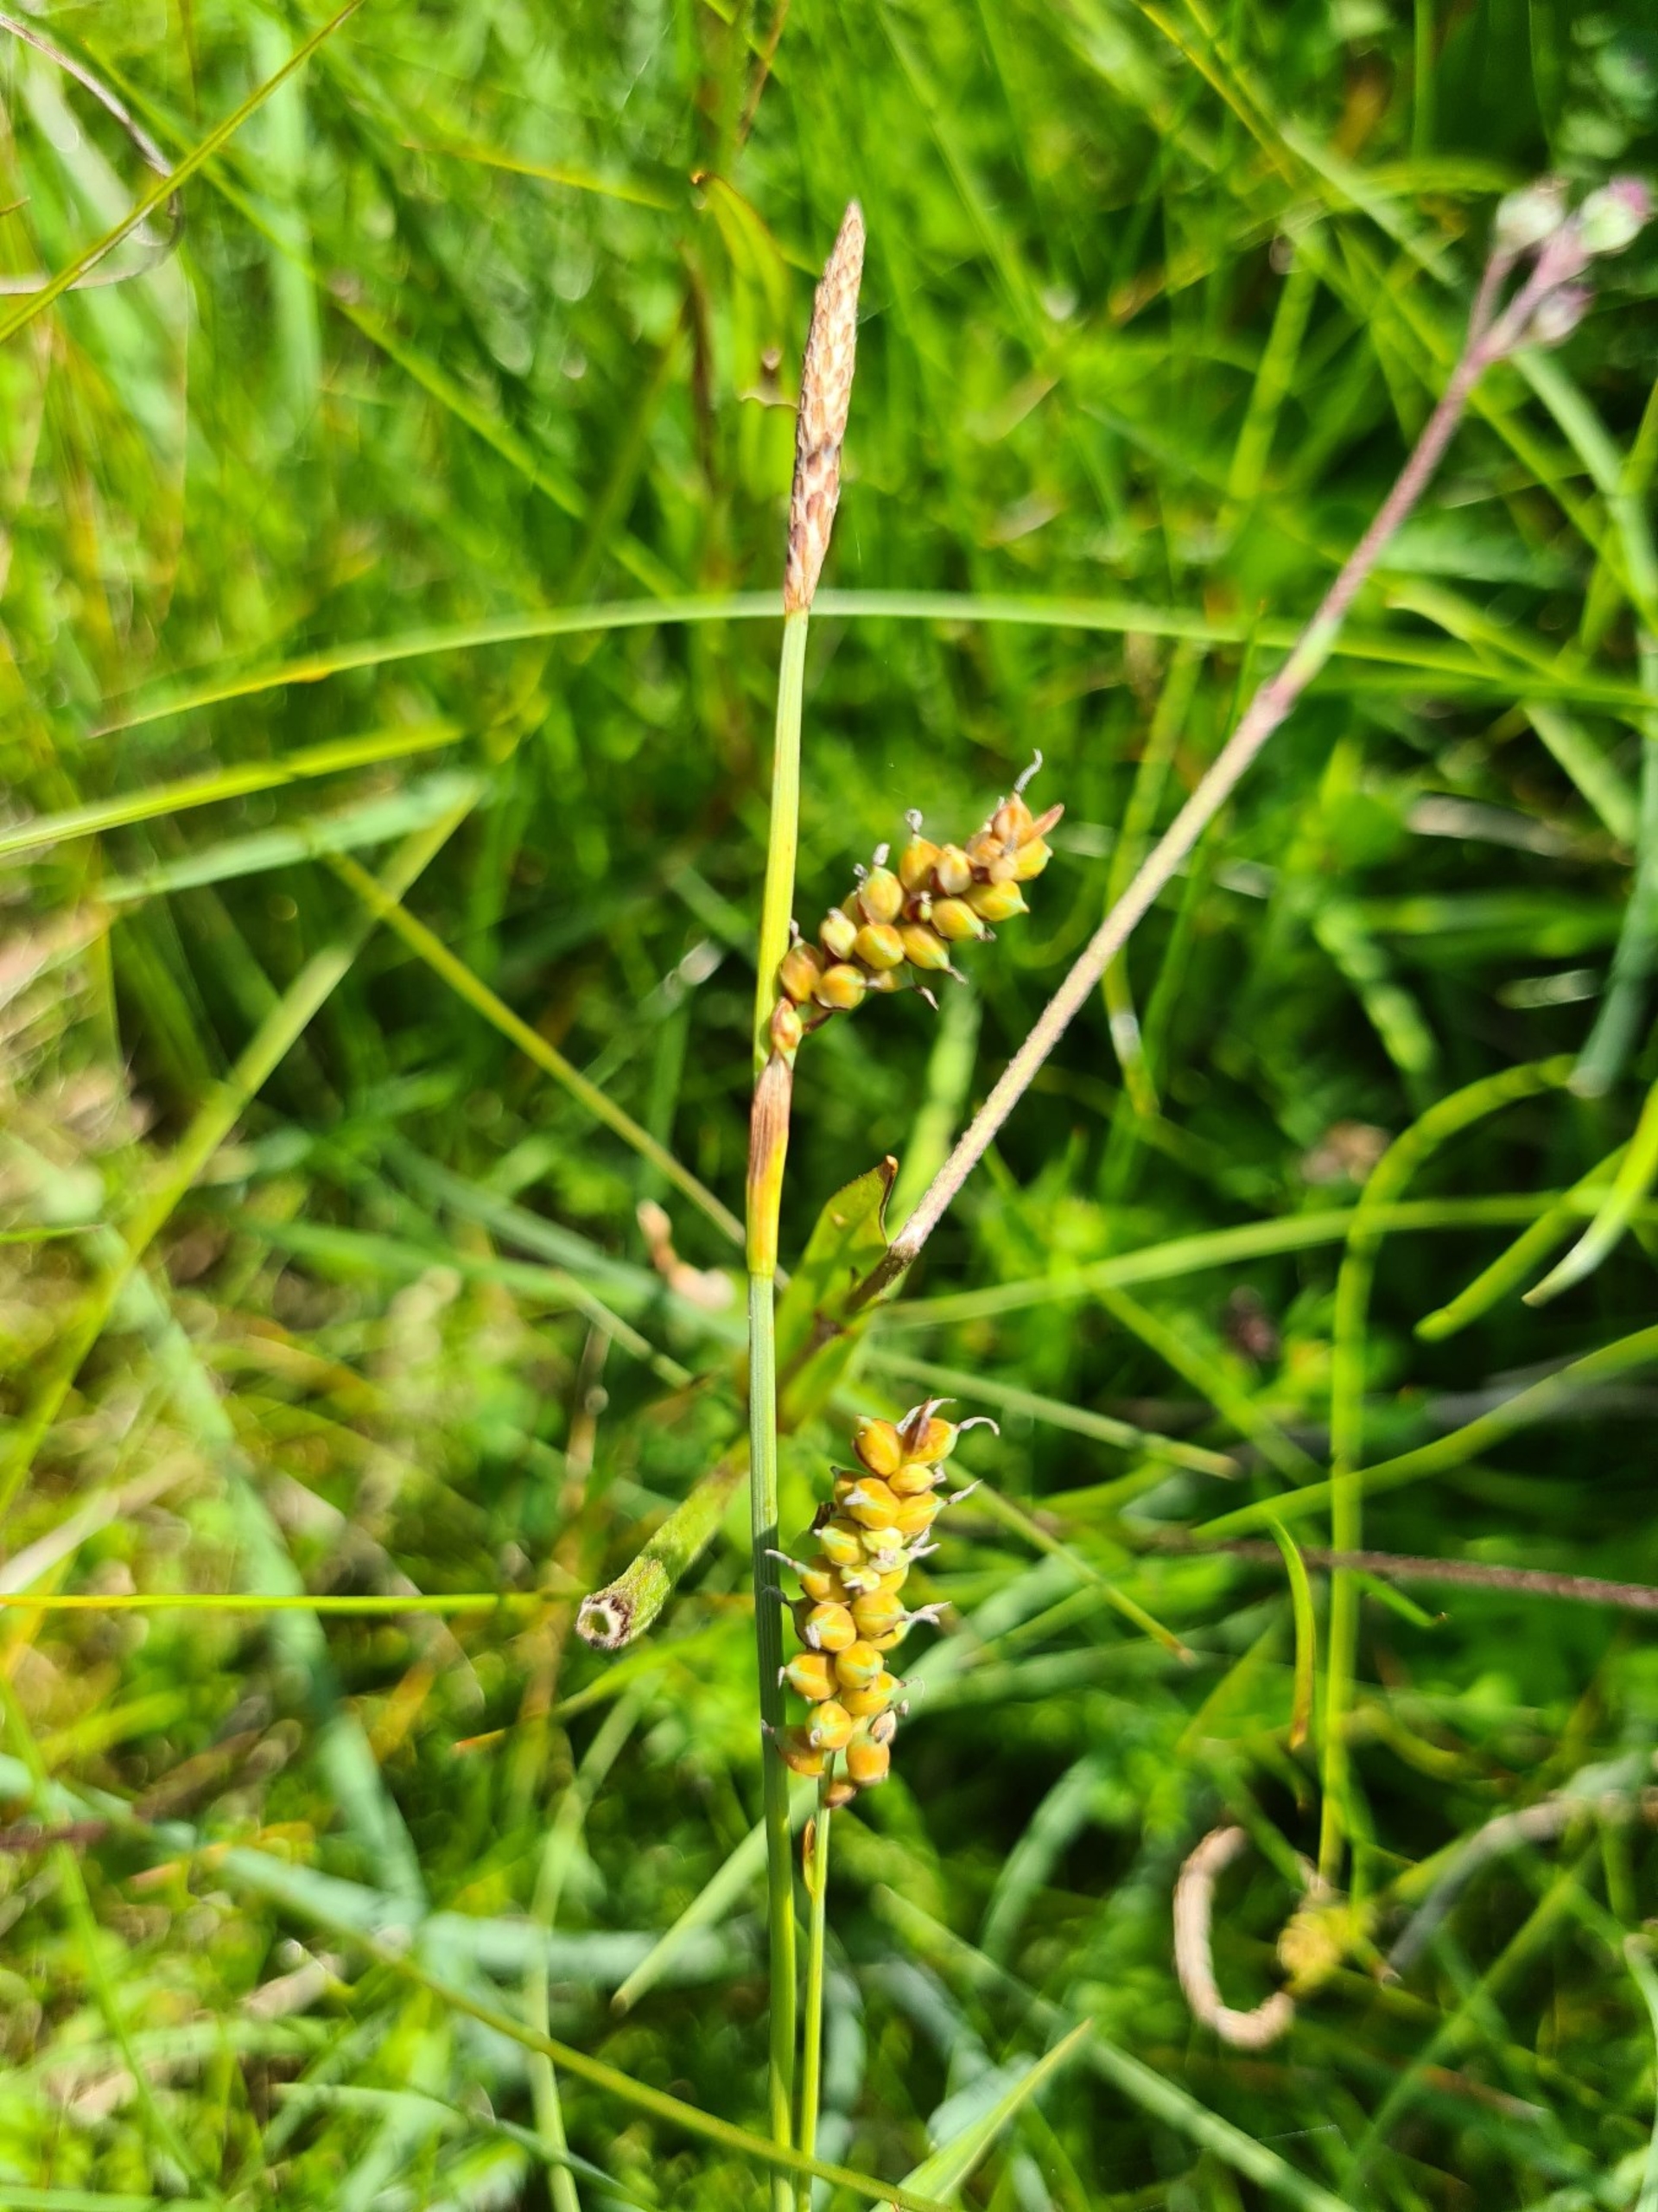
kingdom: Plantae
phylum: Tracheophyta
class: Liliopsida
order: Poales
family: Cyperaceae
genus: Carex
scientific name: Carex panicea
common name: Hirse-star
